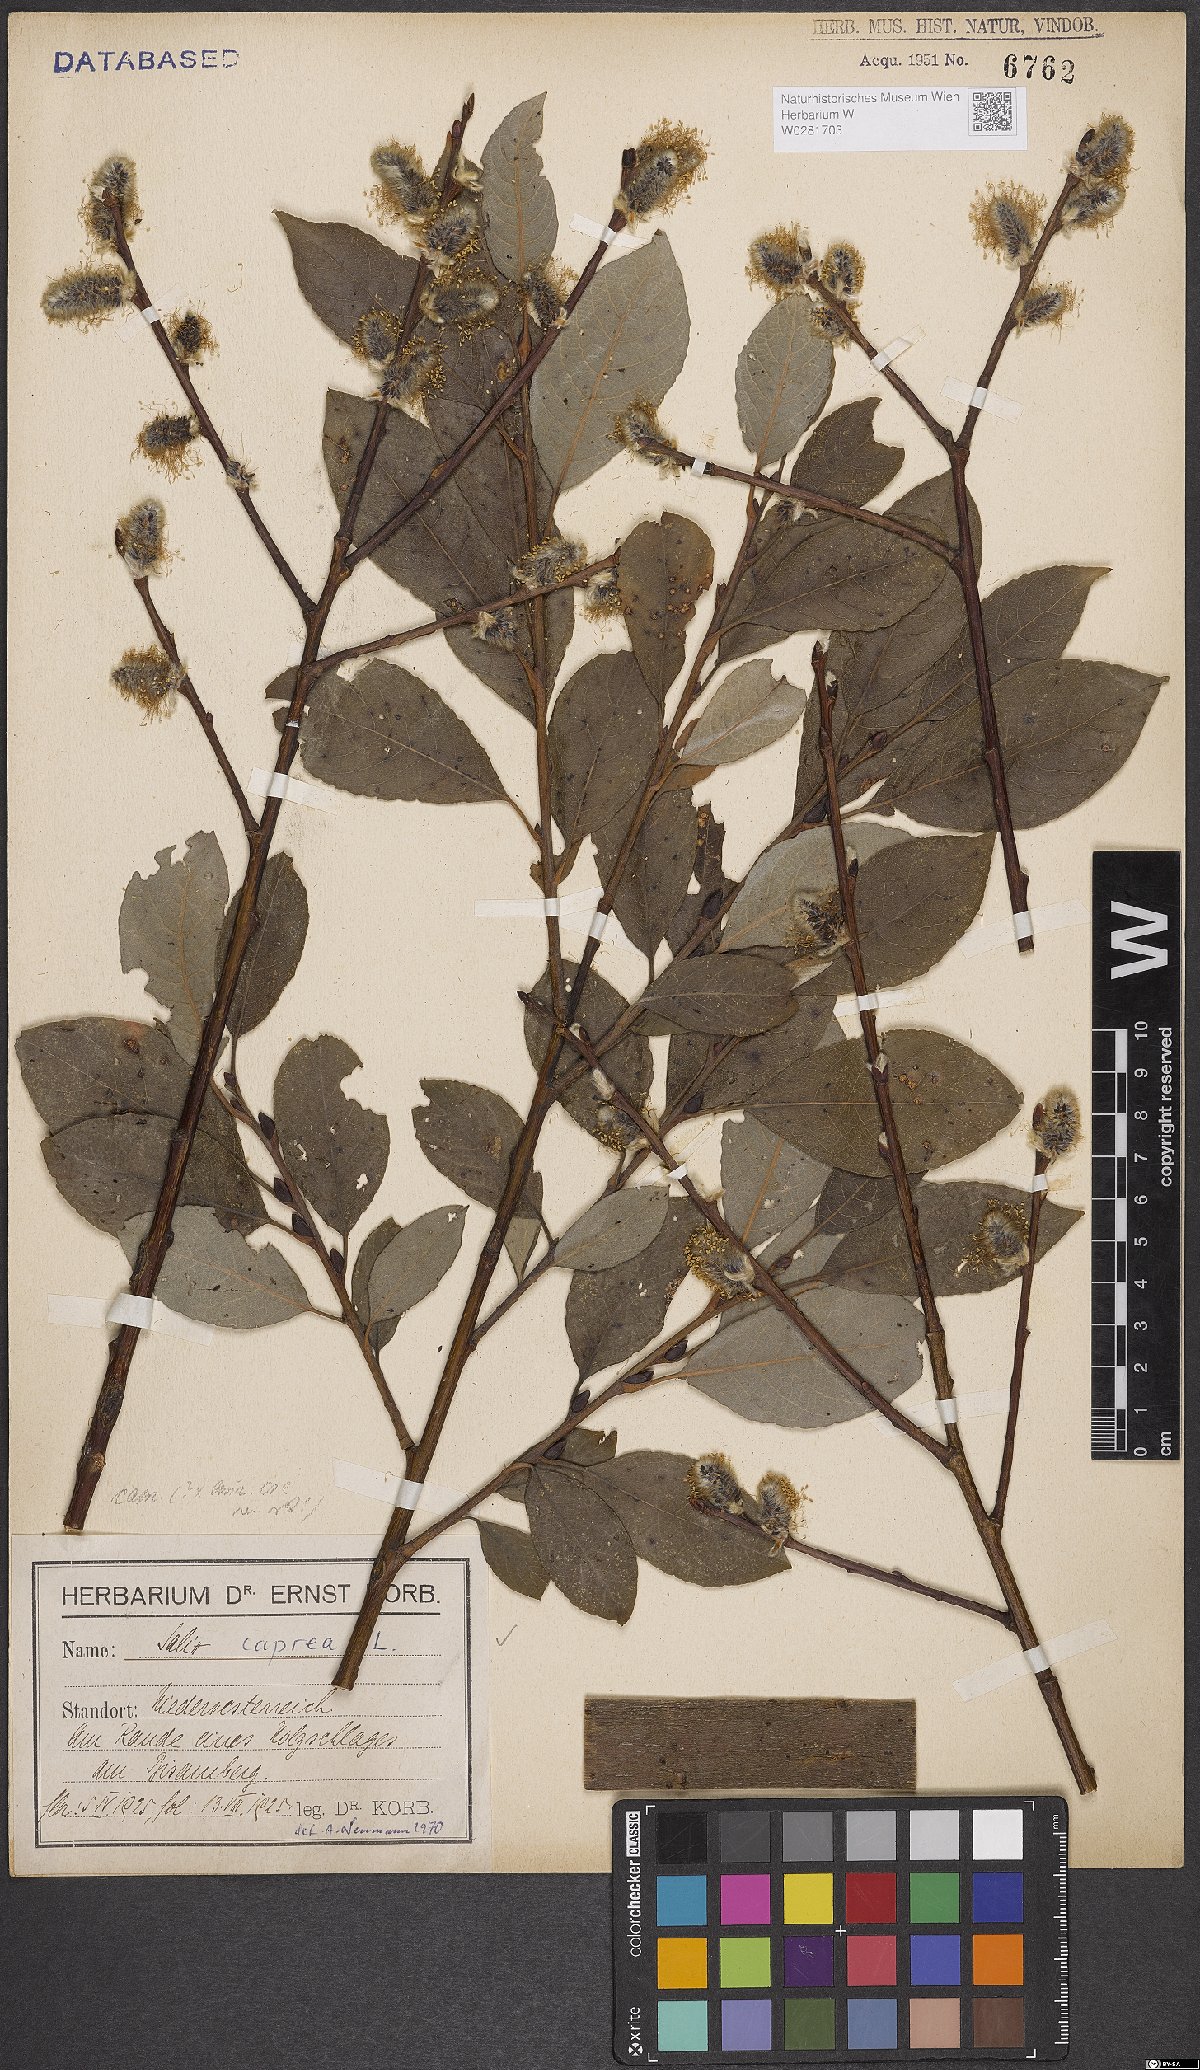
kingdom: Plantae
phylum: Tracheophyta
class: Magnoliopsida
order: Malpighiales
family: Salicaceae
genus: Salix
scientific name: Salix caprea
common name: Goat willow
